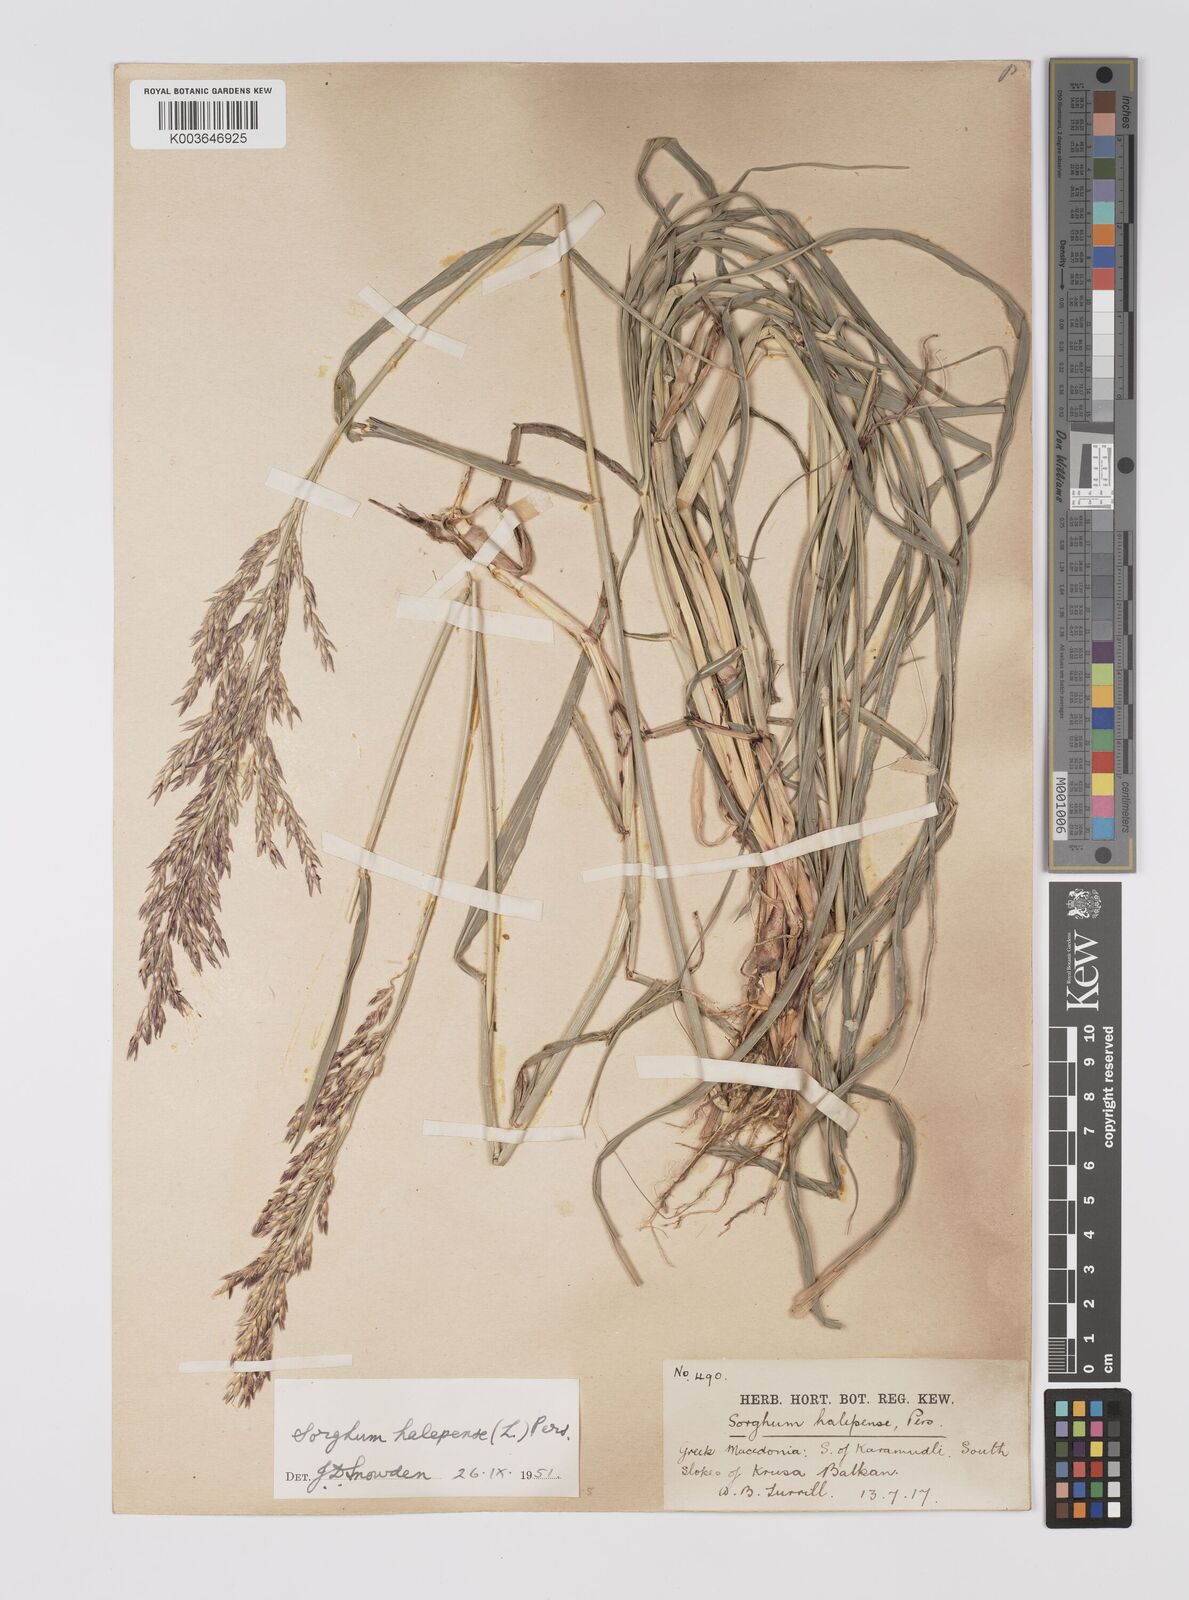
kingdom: Plantae
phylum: Tracheophyta
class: Liliopsida
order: Poales
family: Poaceae
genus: Sorghum
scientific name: Sorghum halepense
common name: Johnson-grass
